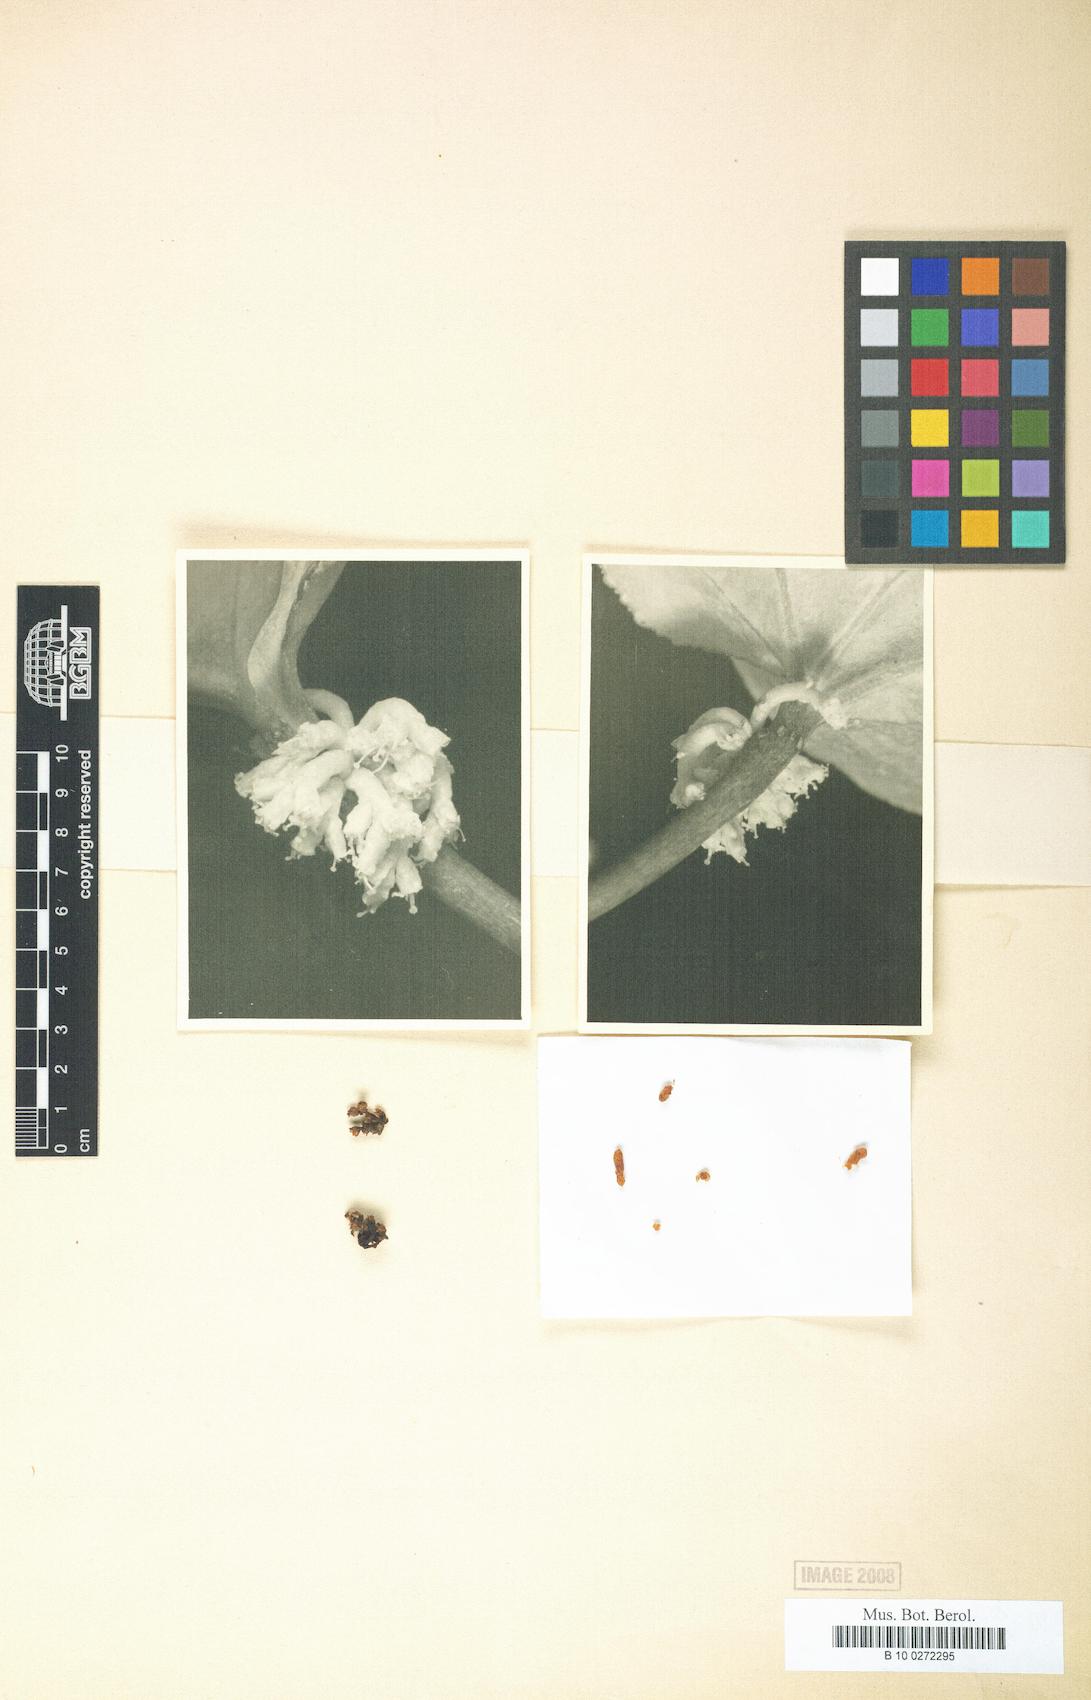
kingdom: Plantae
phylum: Tracheophyta
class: Magnoliopsida
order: Solanales
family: Convolvulaceae
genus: Cuscuta
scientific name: Cuscuta
